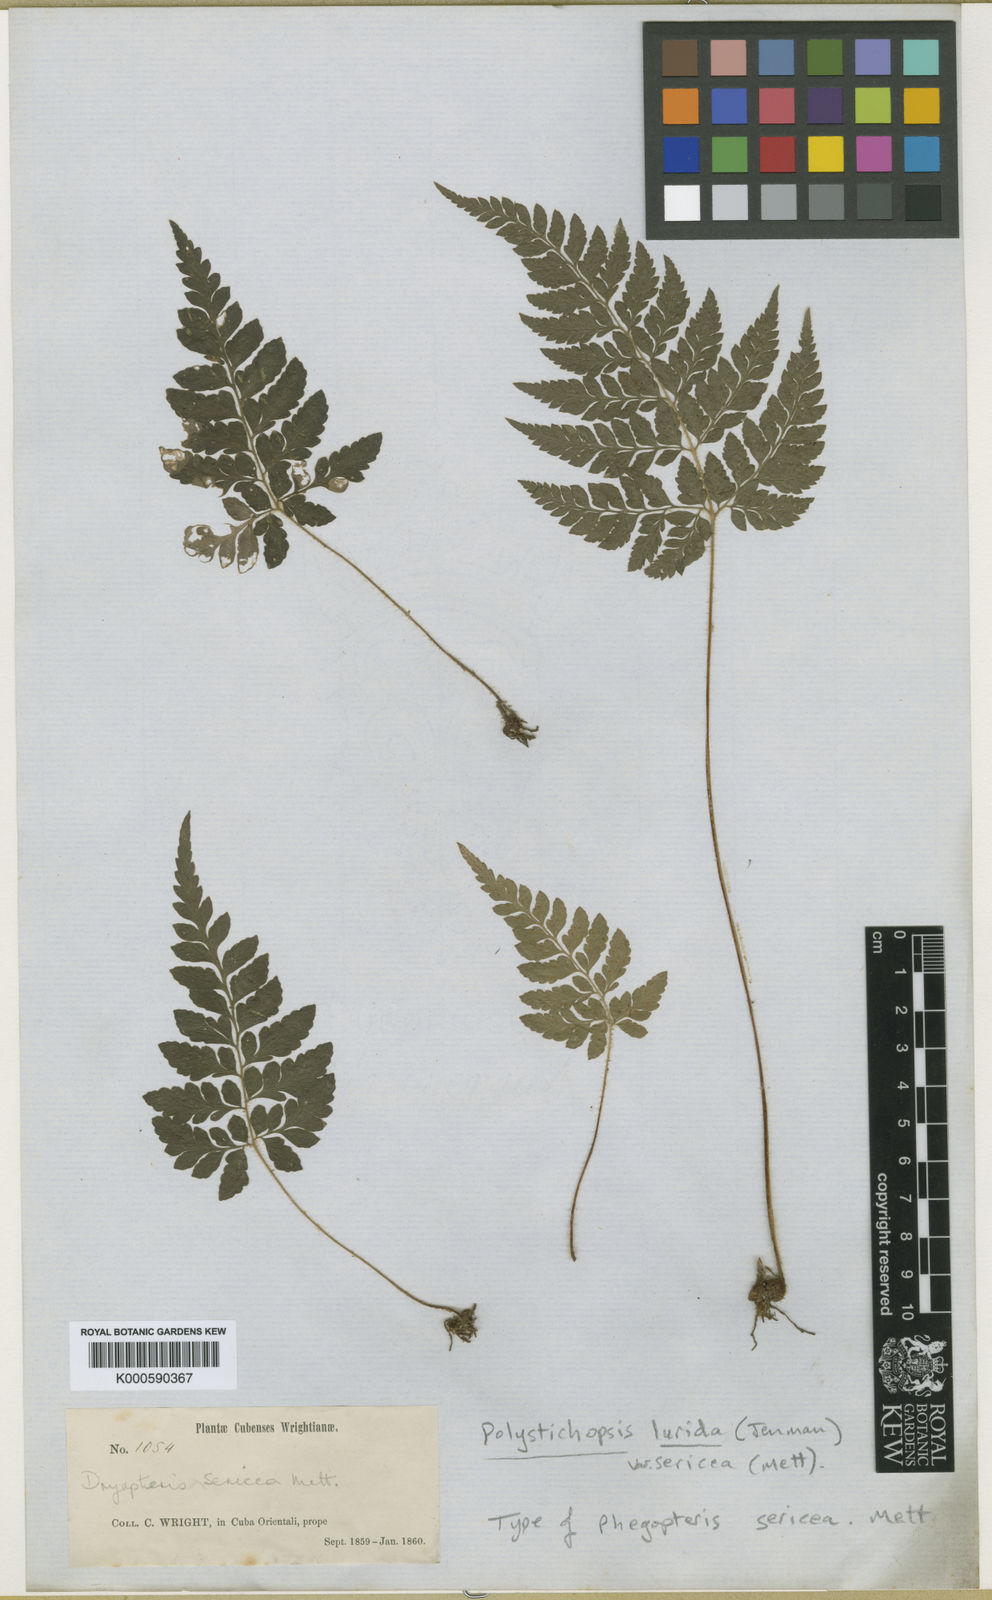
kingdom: Plantae
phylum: Tracheophyta
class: Polypodiopsida
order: Polypodiales
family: Dryopteridaceae
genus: Polystichopsis
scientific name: Polystichopsis lurida
